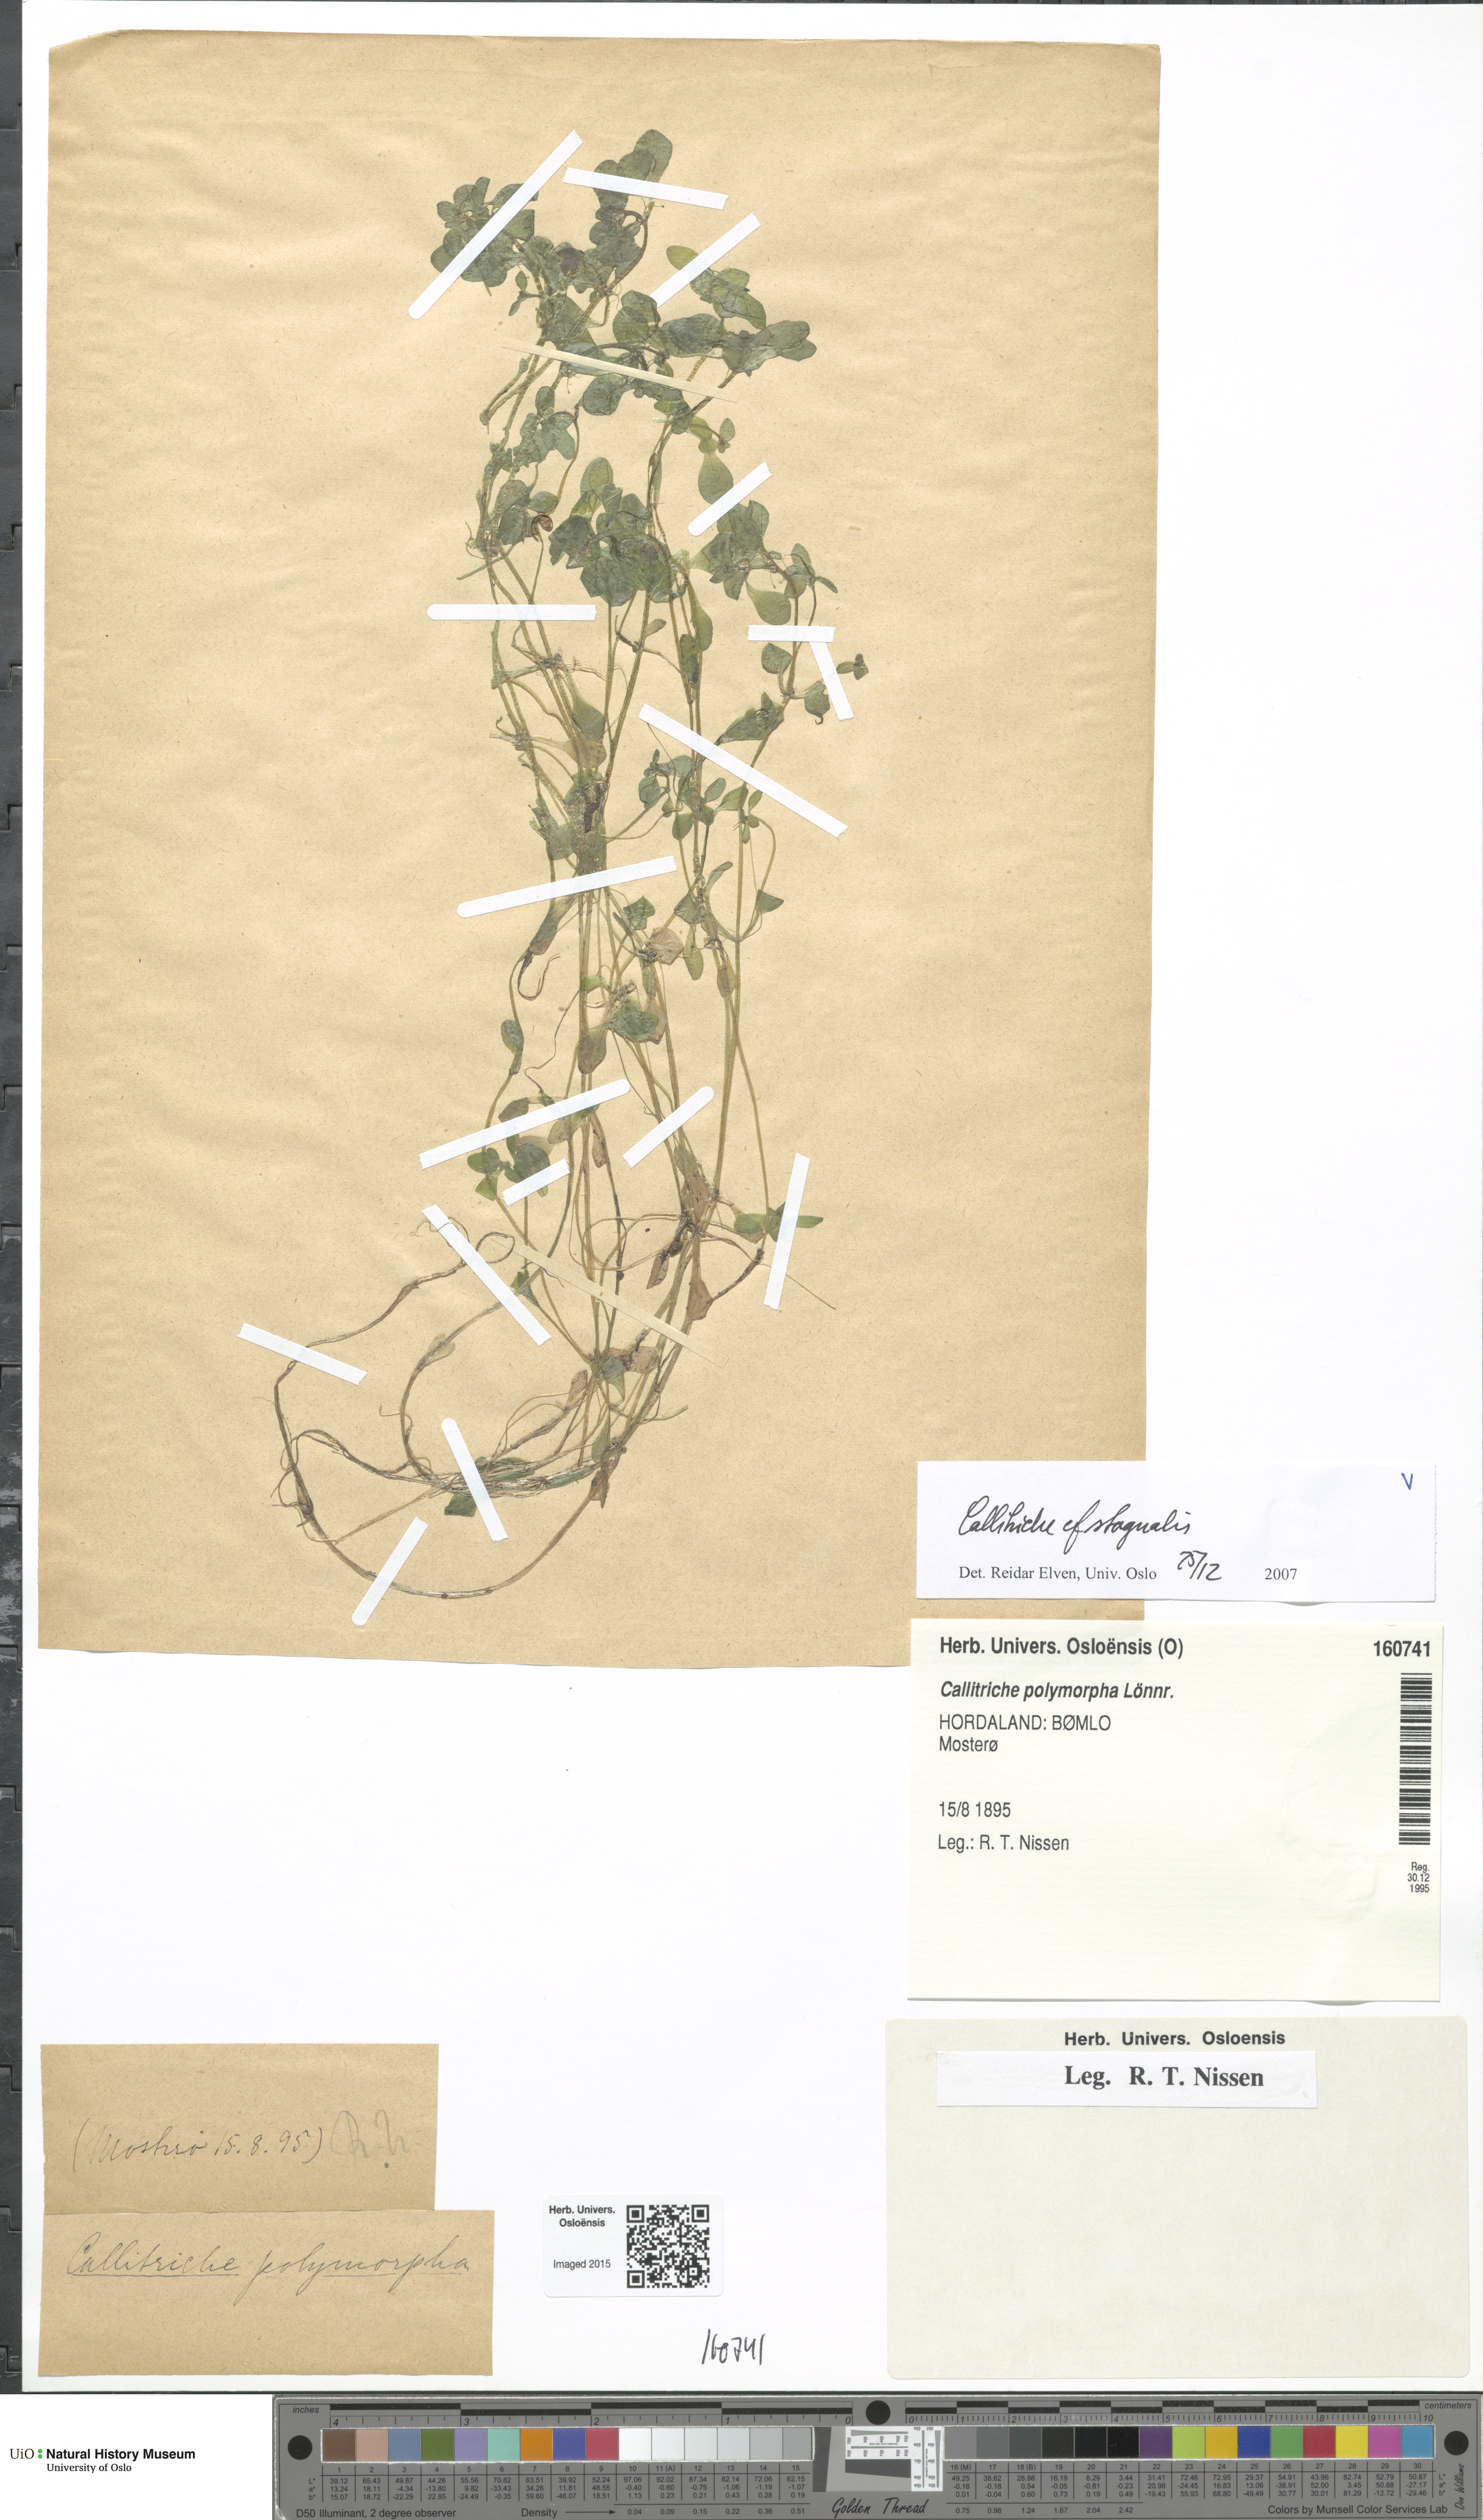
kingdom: Plantae
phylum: Tracheophyta
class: Magnoliopsida
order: Lamiales
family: Plantaginaceae
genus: Callitriche
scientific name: Callitriche stagnalis
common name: Common water-starwort
